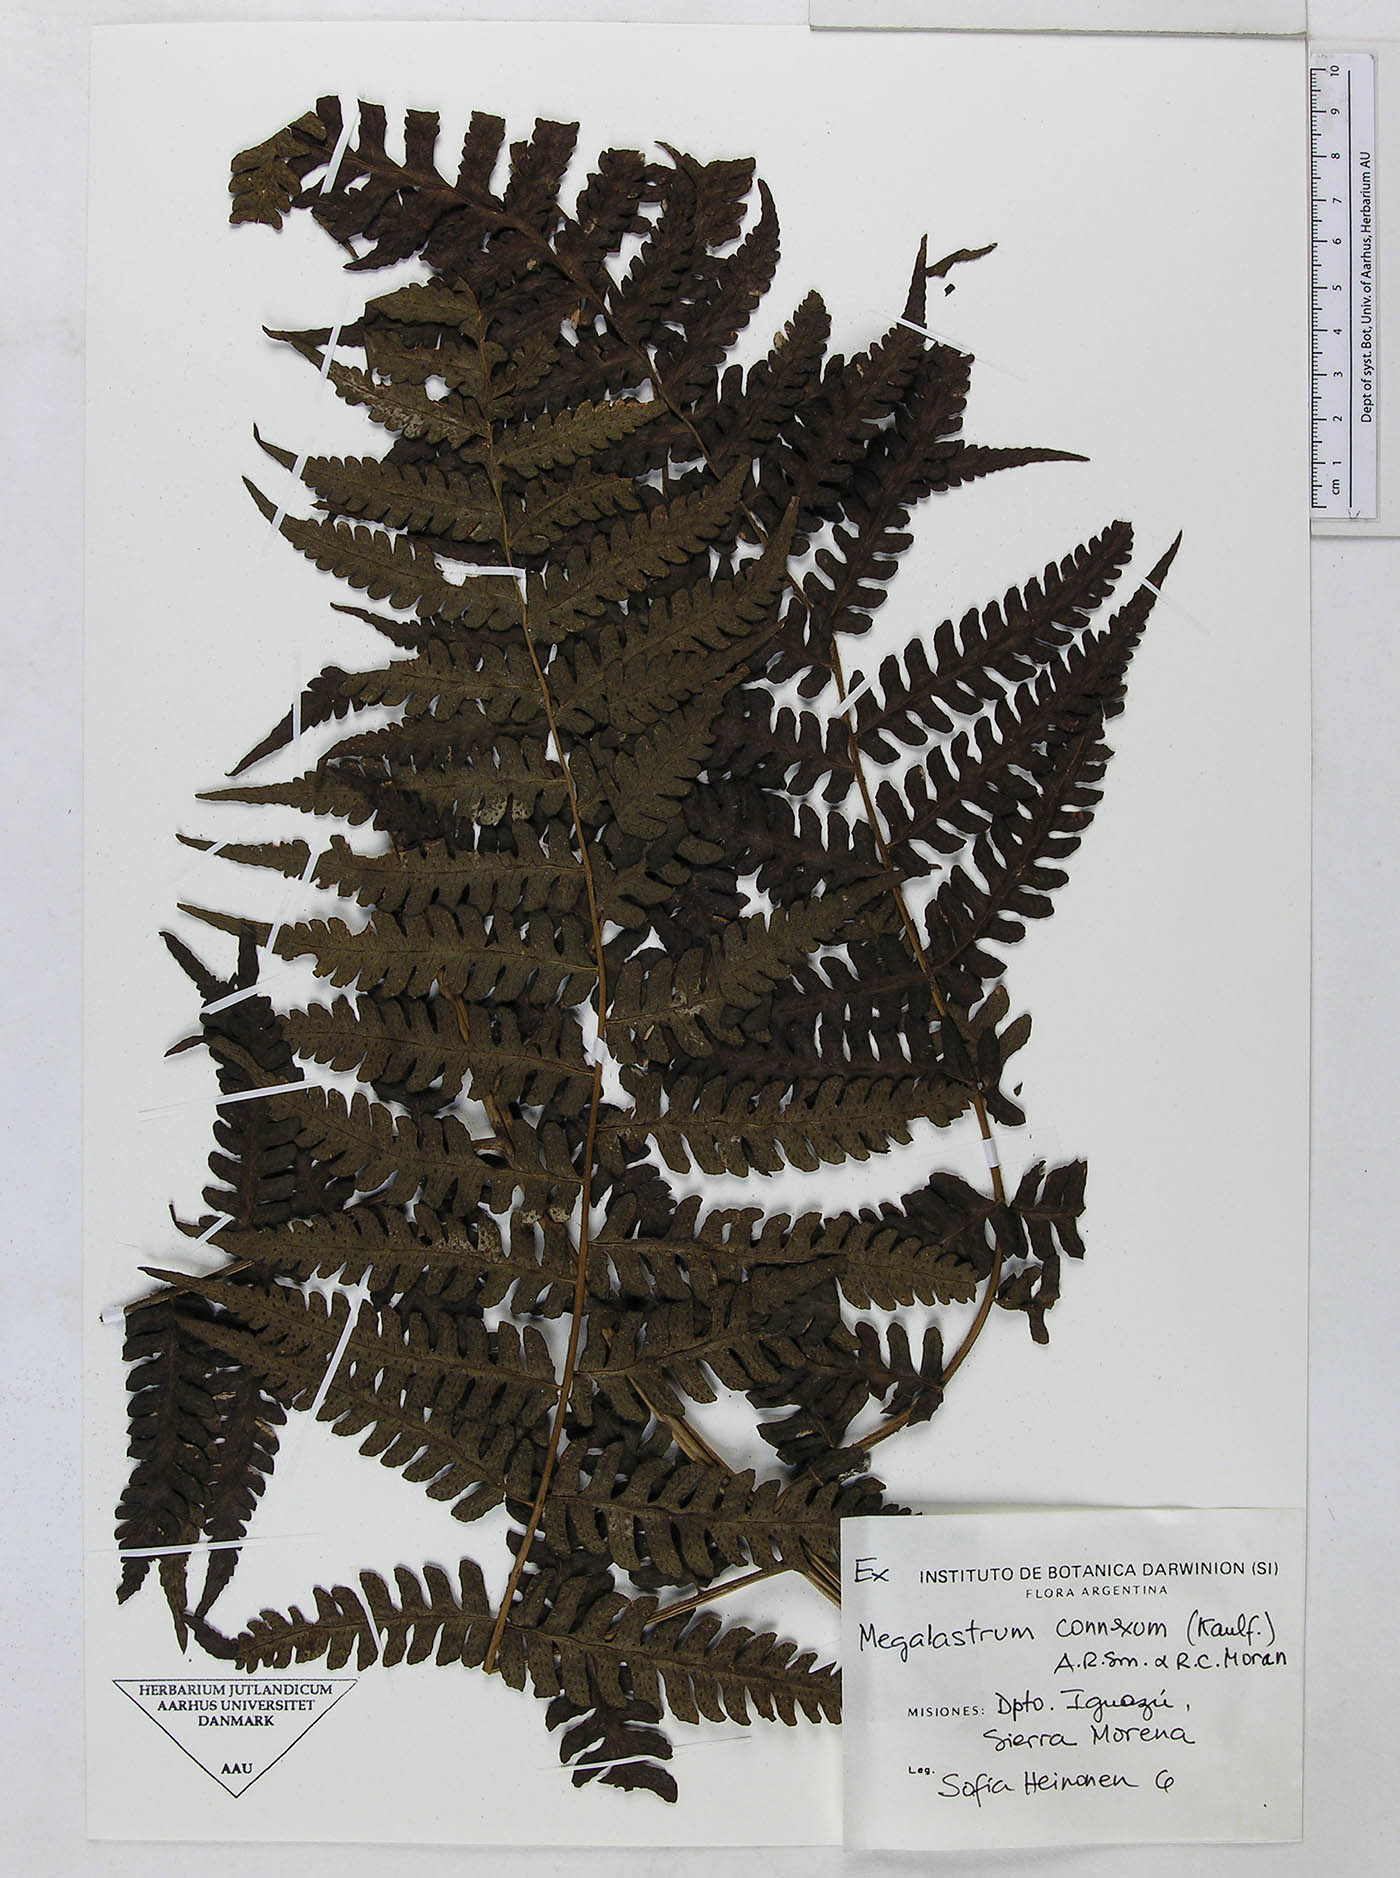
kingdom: Plantae
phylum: Tracheophyta
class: Polypodiopsida
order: Polypodiales
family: Dryopteridaceae
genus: Megalastrum
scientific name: Megalastrum connexum
